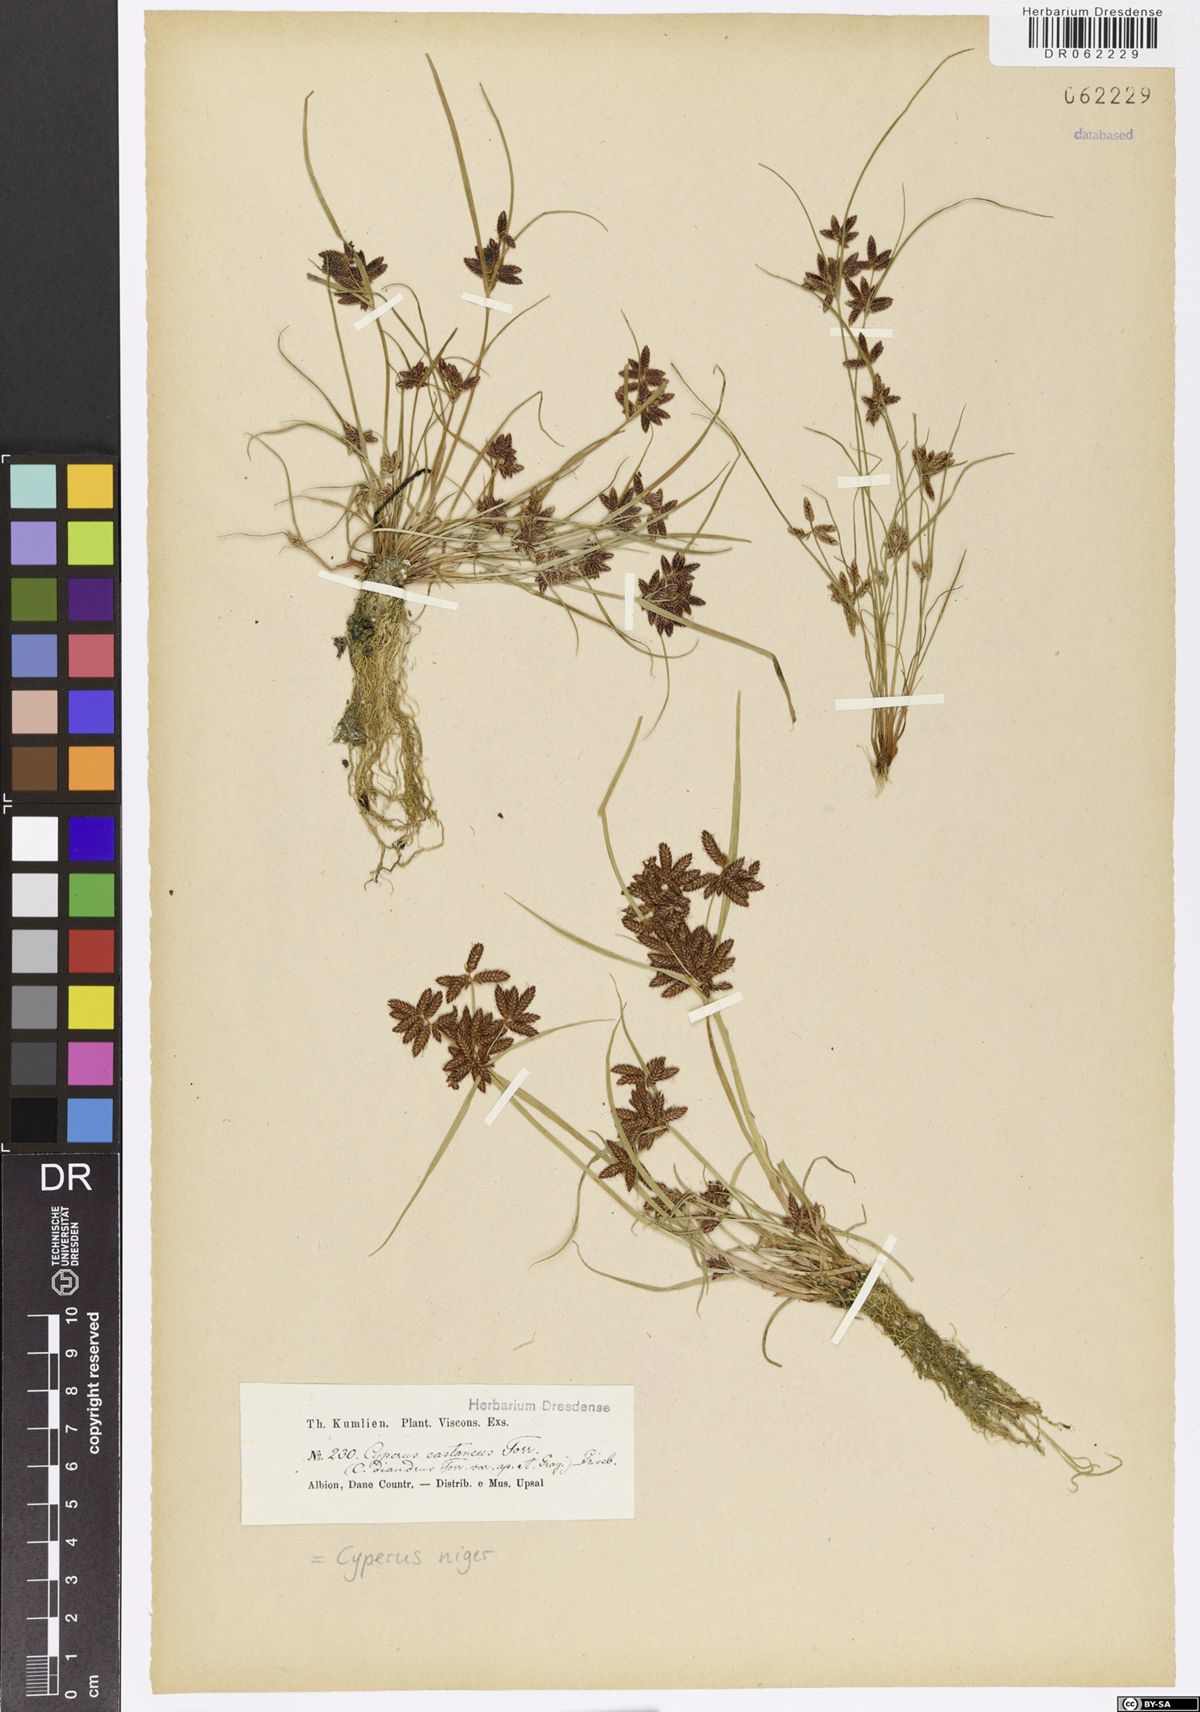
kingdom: Plantae
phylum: Tracheophyta
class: Liliopsida
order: Poales
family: Cyperaceae
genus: Cyperus
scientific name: Cyperus melanostachyus
